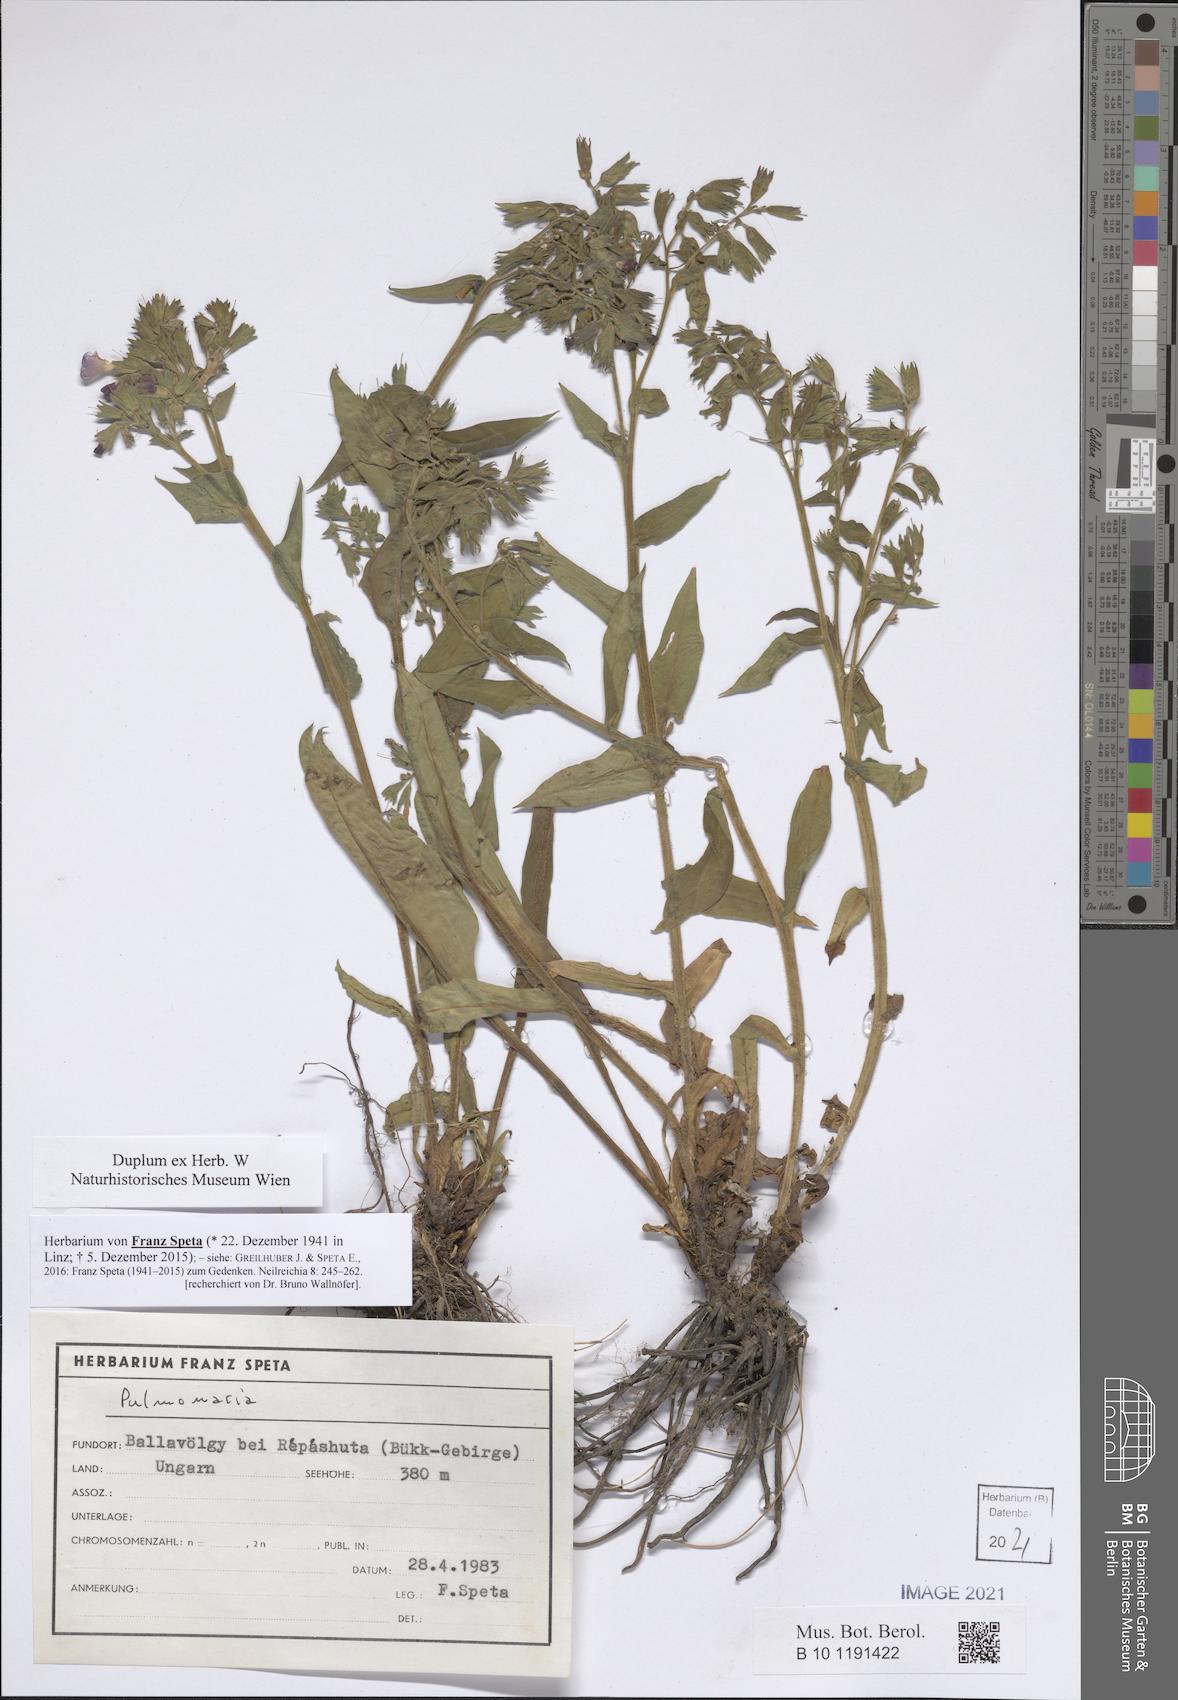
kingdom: Plantae
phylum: Tracheophyta
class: Magnoliopsida
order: Boraginales
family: Boraginaceae
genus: Pulmonaria
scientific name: Pulmonaria
